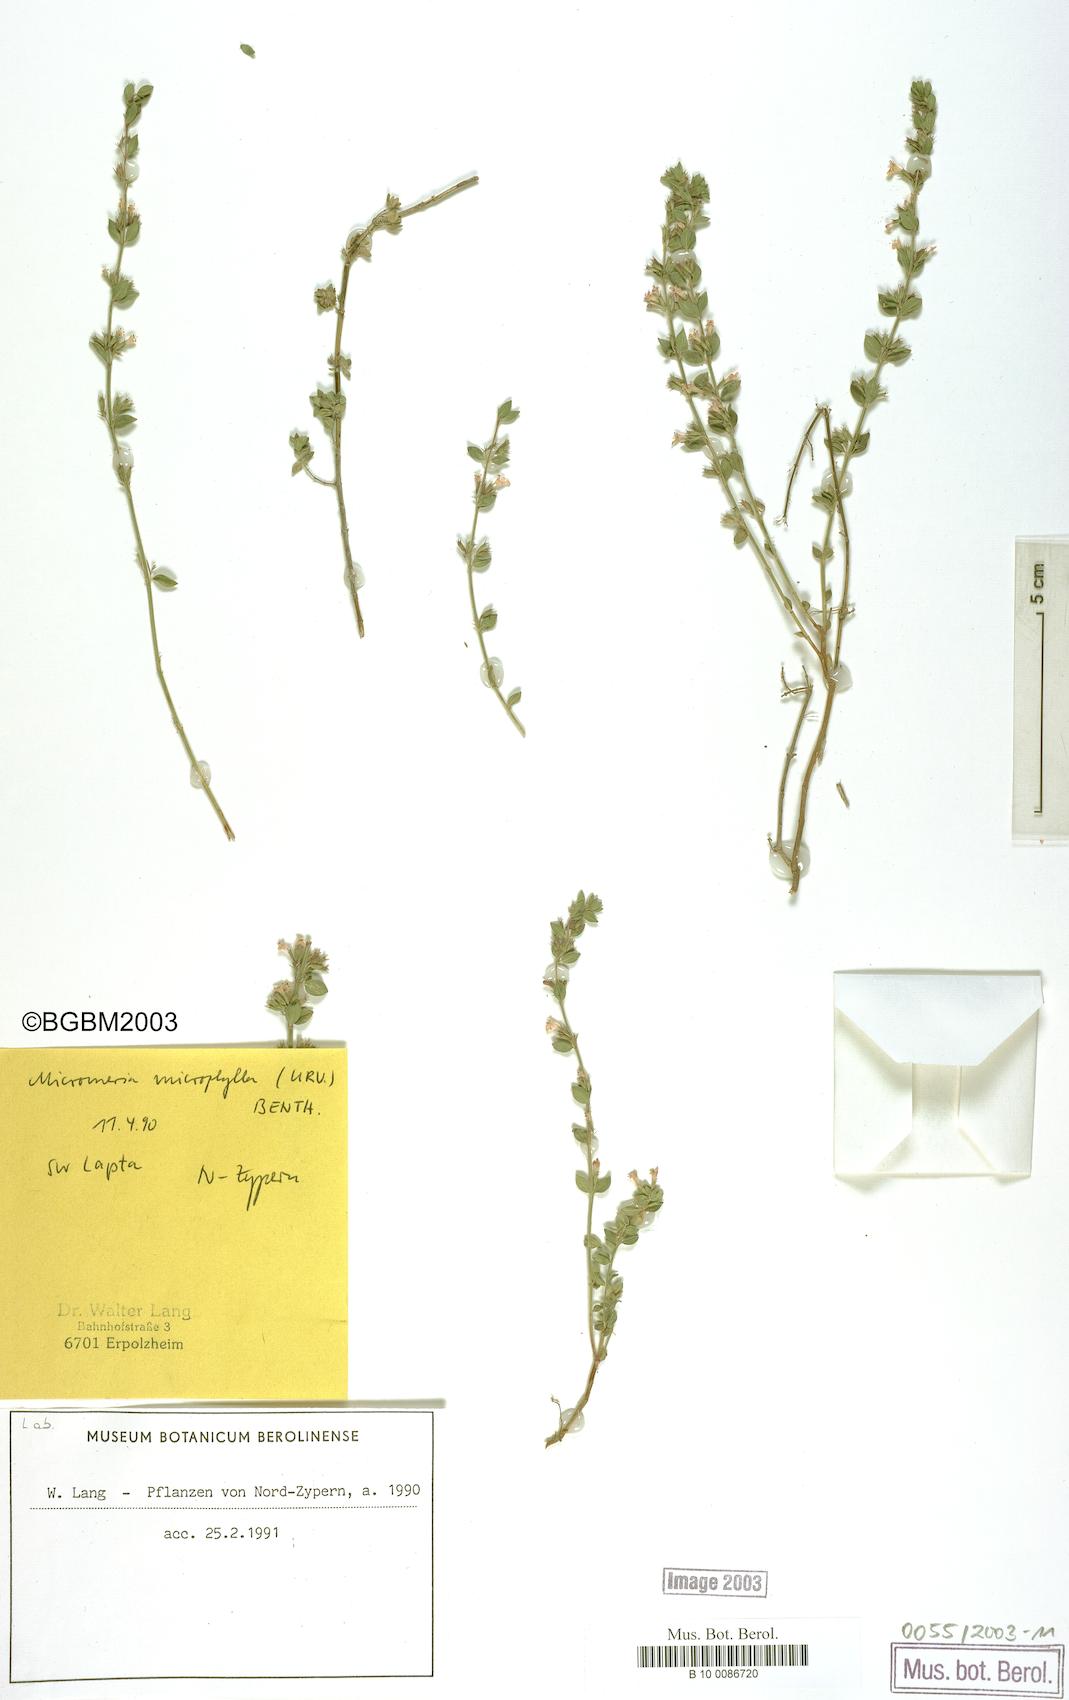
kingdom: Plantae
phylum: Tracheophyta
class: Magnoliopsida
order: Lamiales
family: Lamiaceae
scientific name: Lamiaceae
